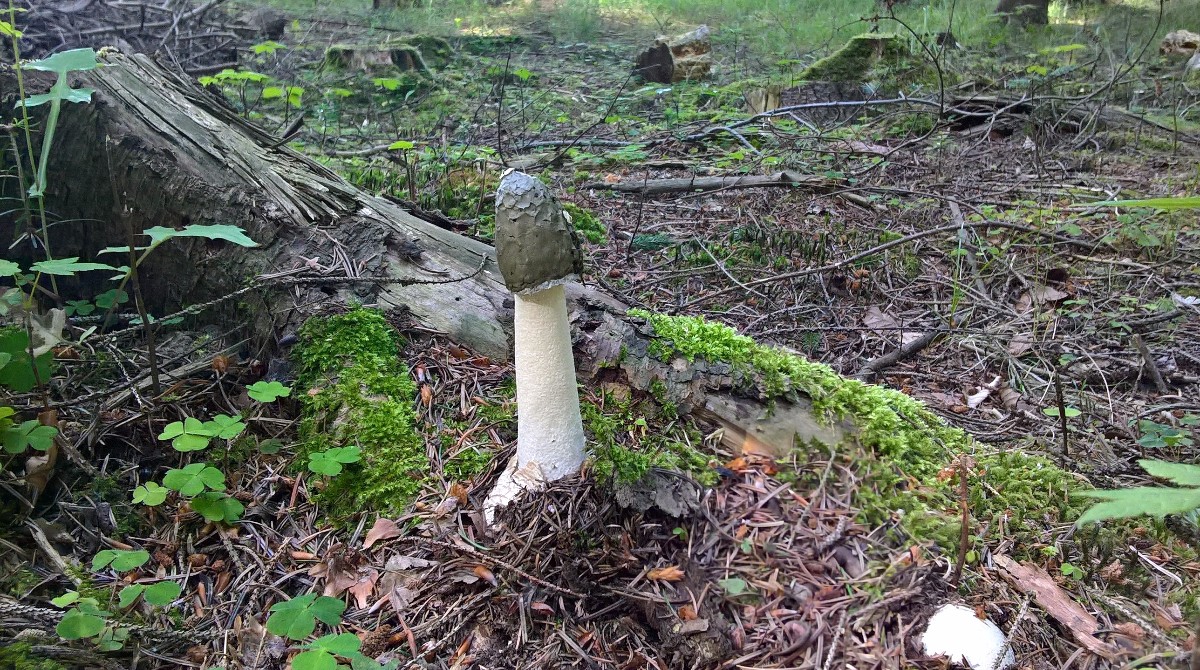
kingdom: Fungi
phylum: Basidiomycota
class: Agaricomycetes
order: Phallales
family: Phallaceae
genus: Phallus
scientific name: Phallus impudicus
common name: almindelig stinksvamp
